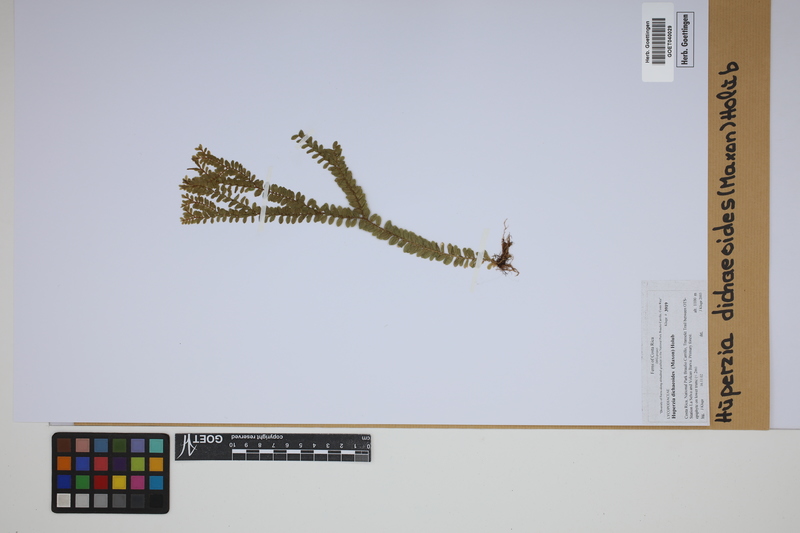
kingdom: Plantae
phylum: Tracheophyta
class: Lycopodiopsida
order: Lycopodiales
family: Lycopodiaceae
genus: Phlegmariurus
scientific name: Phlegmariurus dichaeoides
